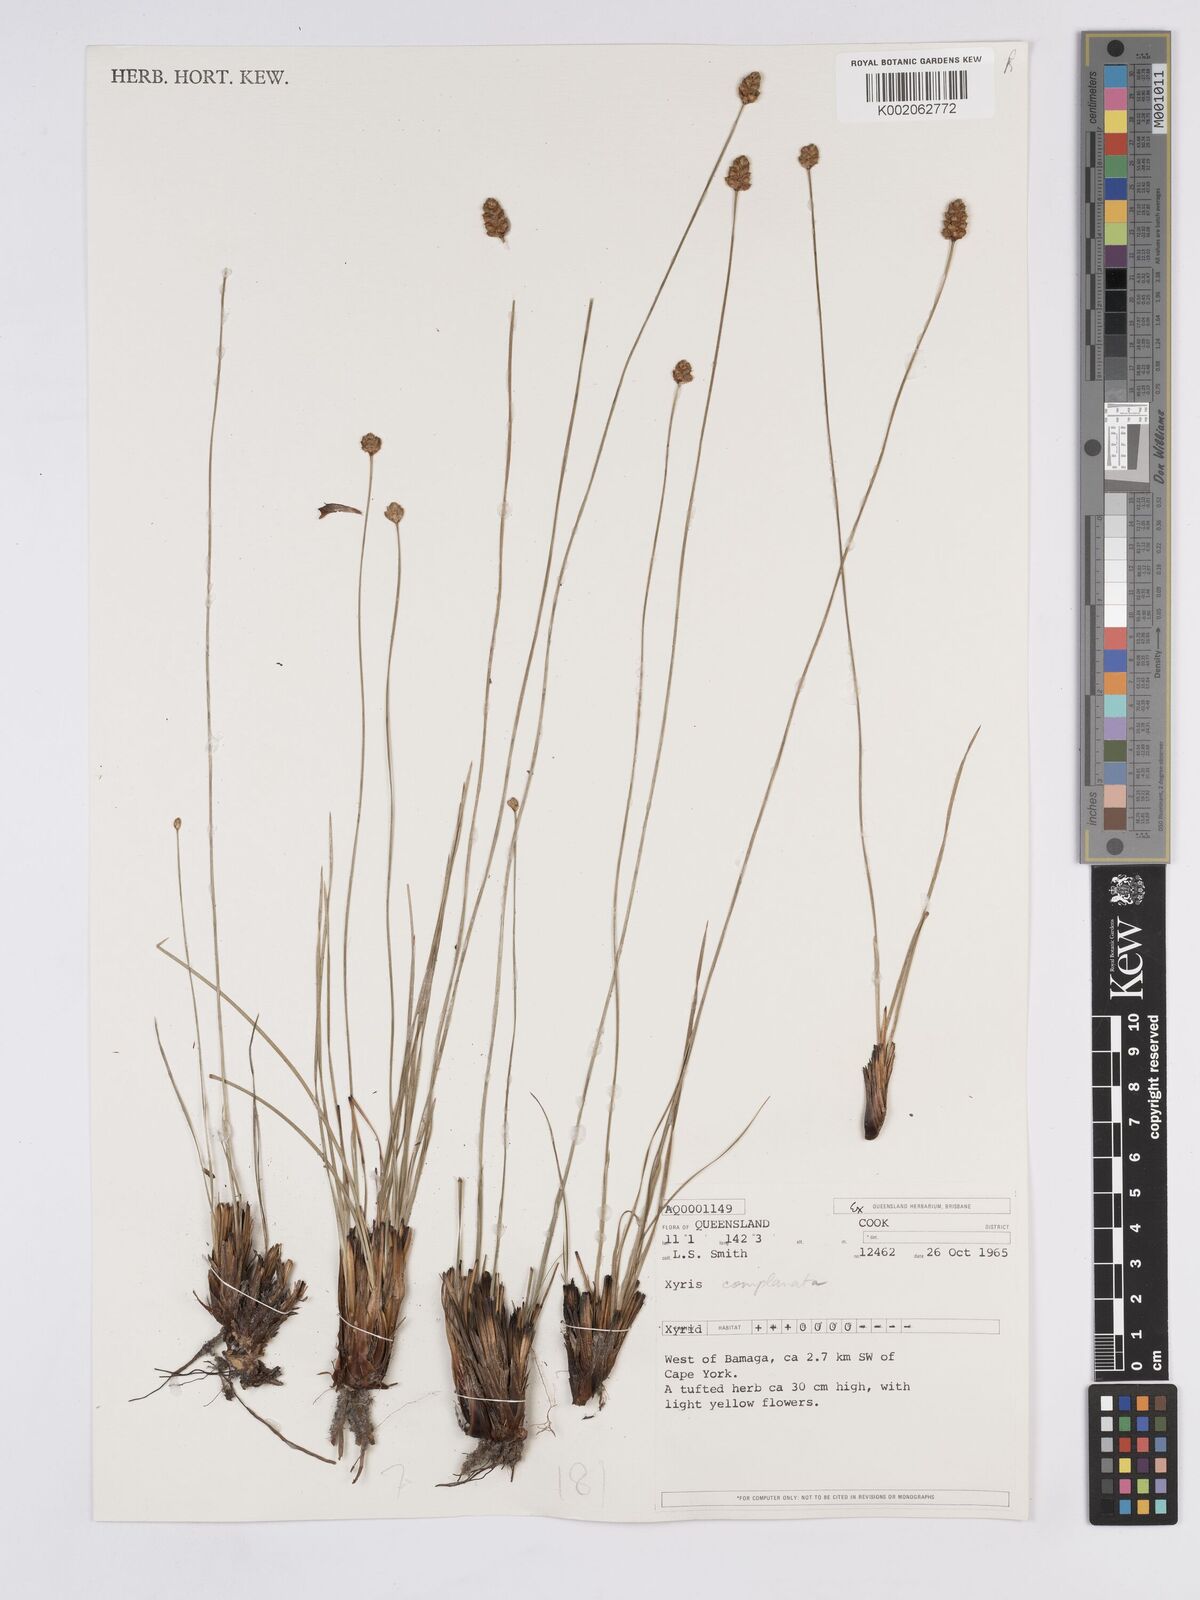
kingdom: Plantae
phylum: Tracheophyta
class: Liliopsida
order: Poales
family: Xyridaceae
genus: Xyris
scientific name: Xyris complanata
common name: Hawai'i yelloweyed grass
